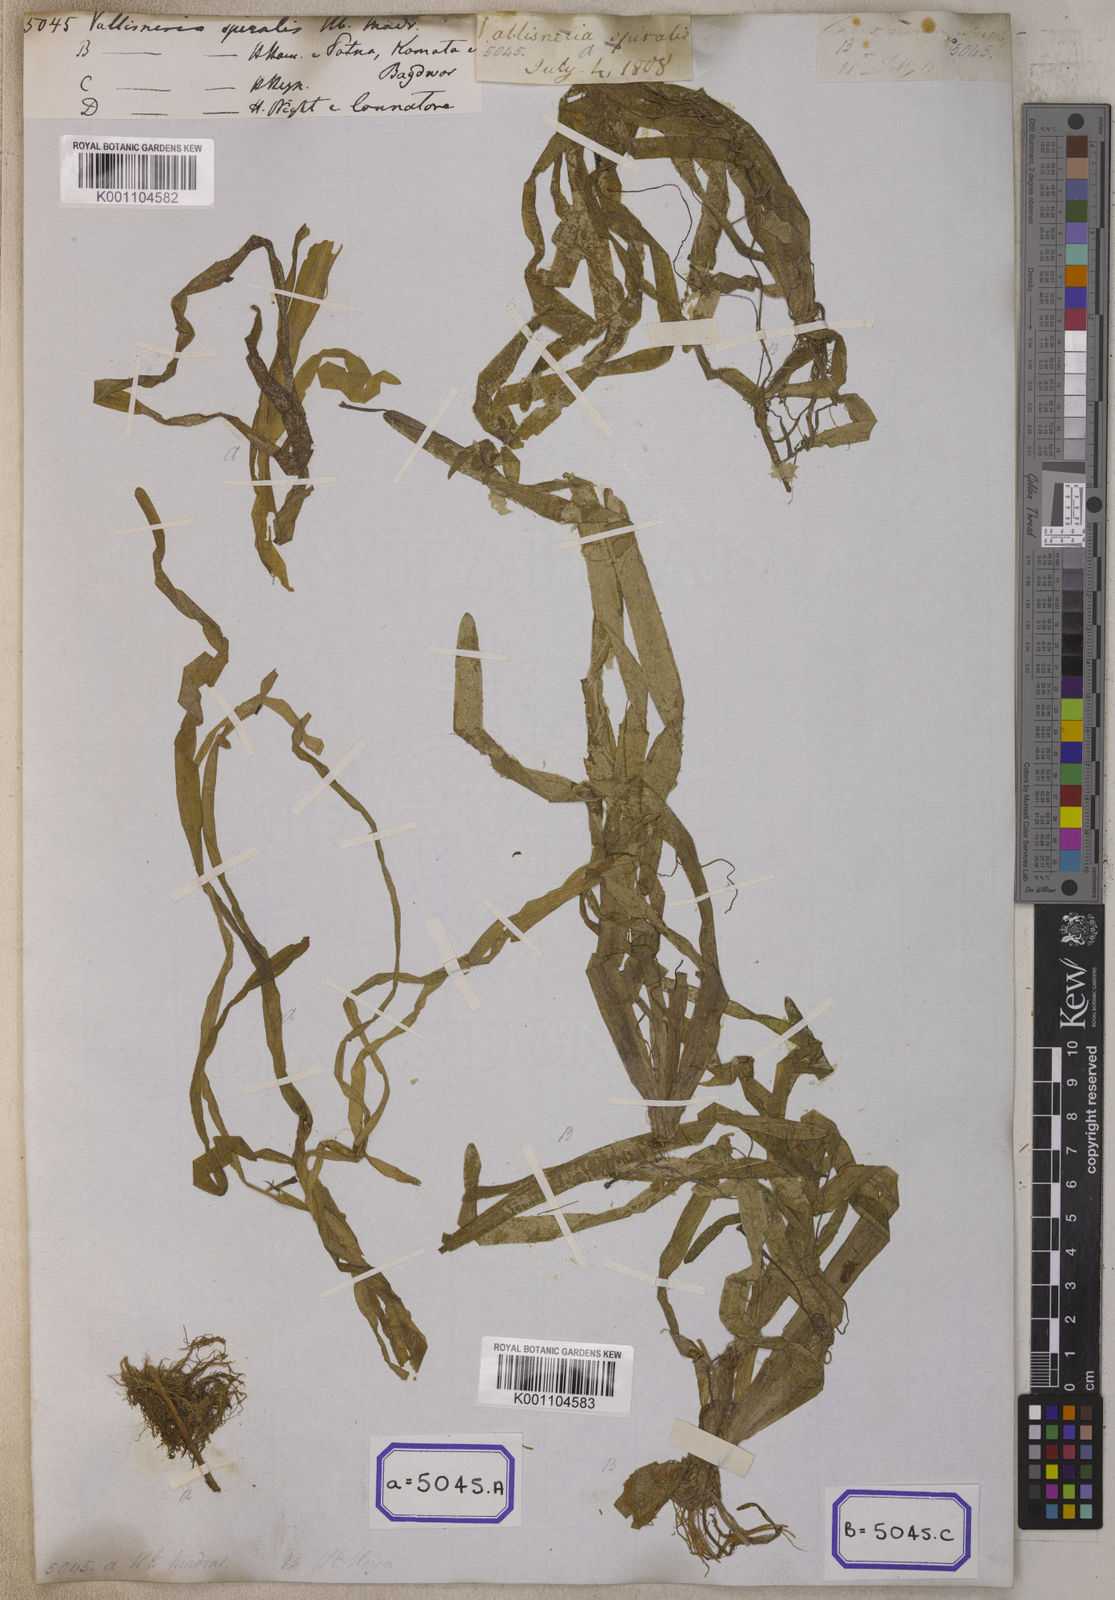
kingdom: Plantae
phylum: Tracheophyta
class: Liliopsida
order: Alismatales
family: Hydrocharitaceae
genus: Vallisneria
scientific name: Vallisneria spiralis
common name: Tapegrass
